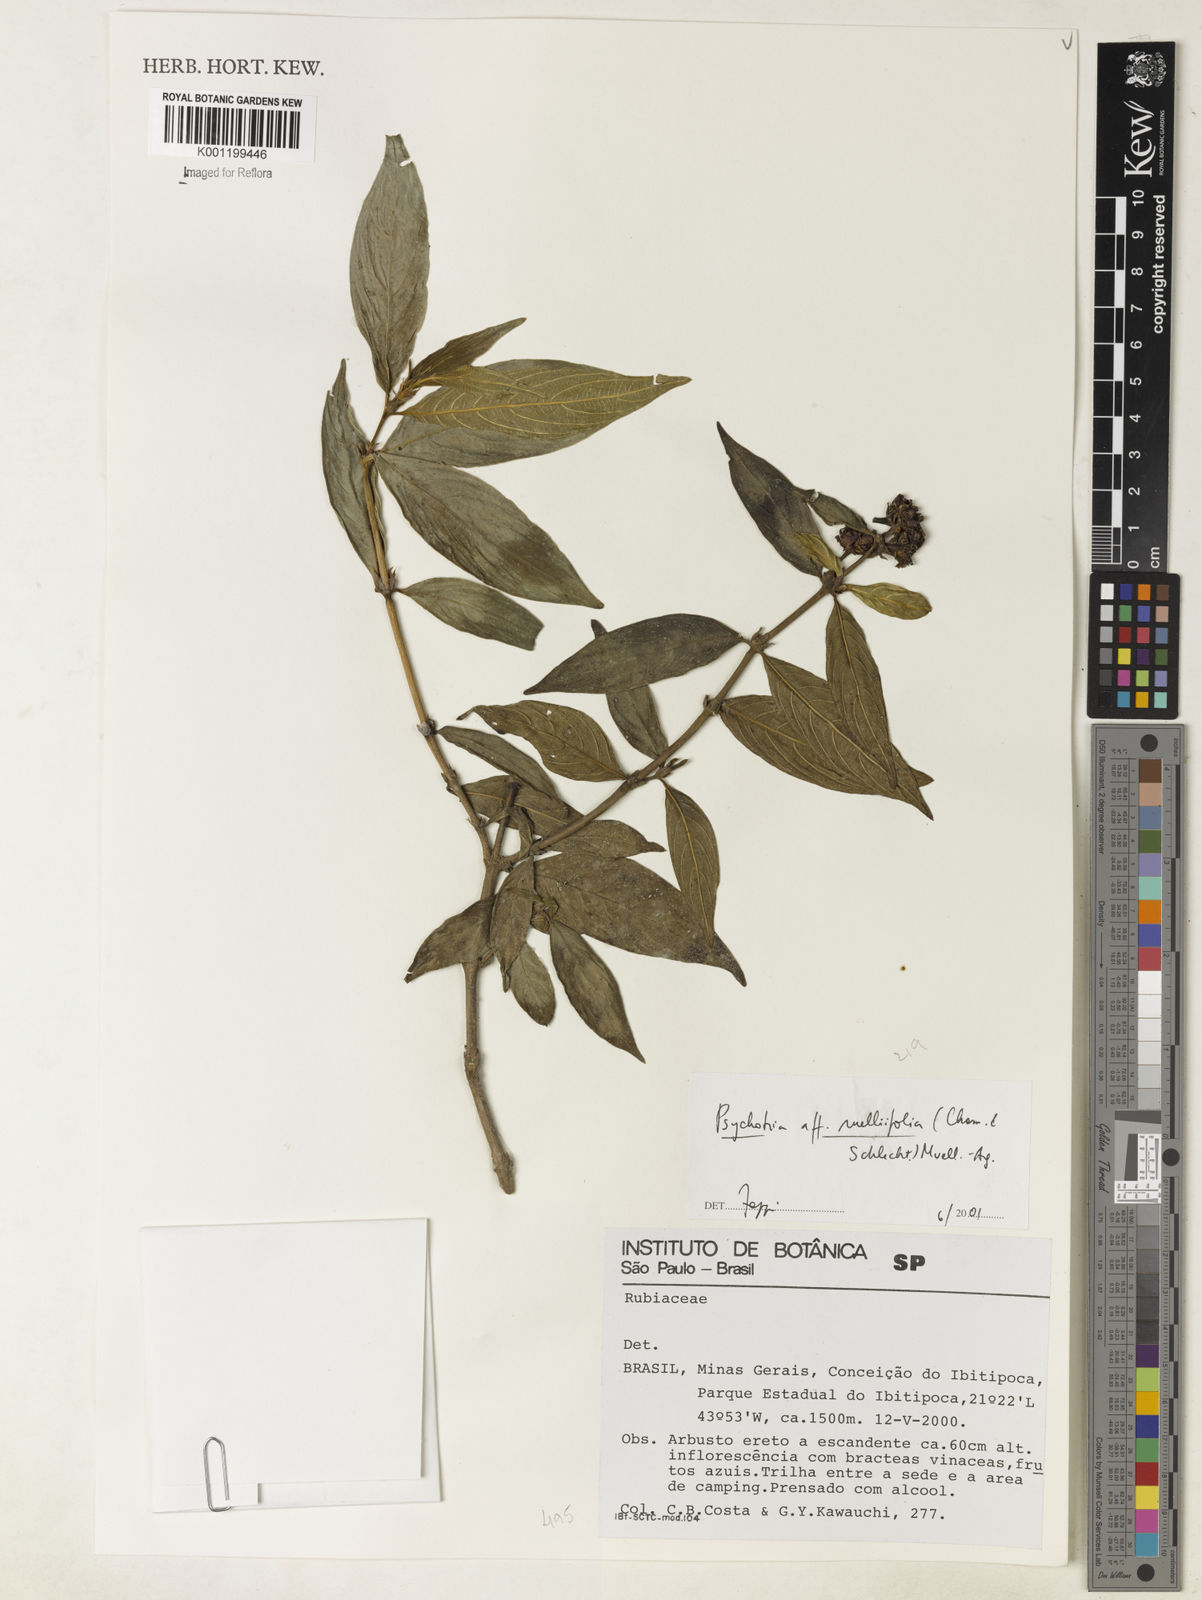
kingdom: Plantae
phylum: Tracheophyta
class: Magnoliopsida
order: Gentianales
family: Rubiaceae
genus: Psychotria
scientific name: Psychotria
